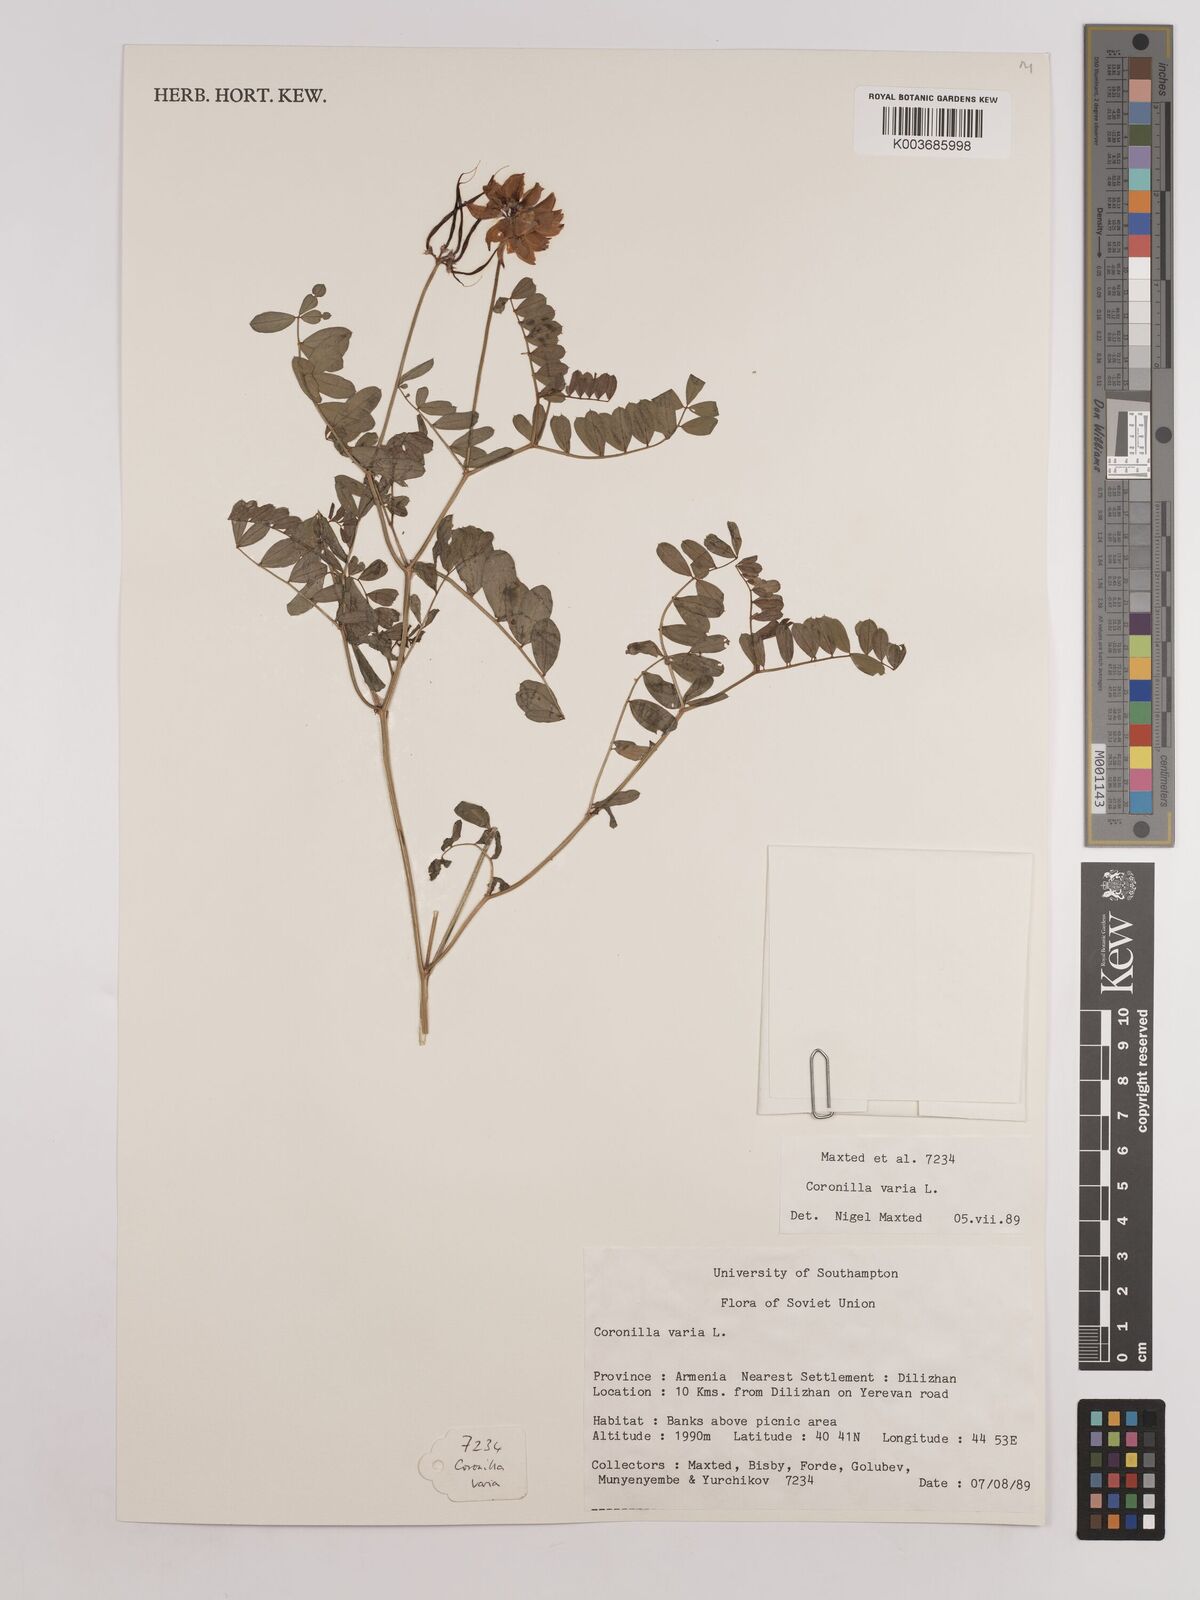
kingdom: Plantae
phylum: Tracheophyta
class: Magnoliopsida
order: Fabales
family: Fabaceae
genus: Coronilla
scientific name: Coronilla varia
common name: Crownvetch
